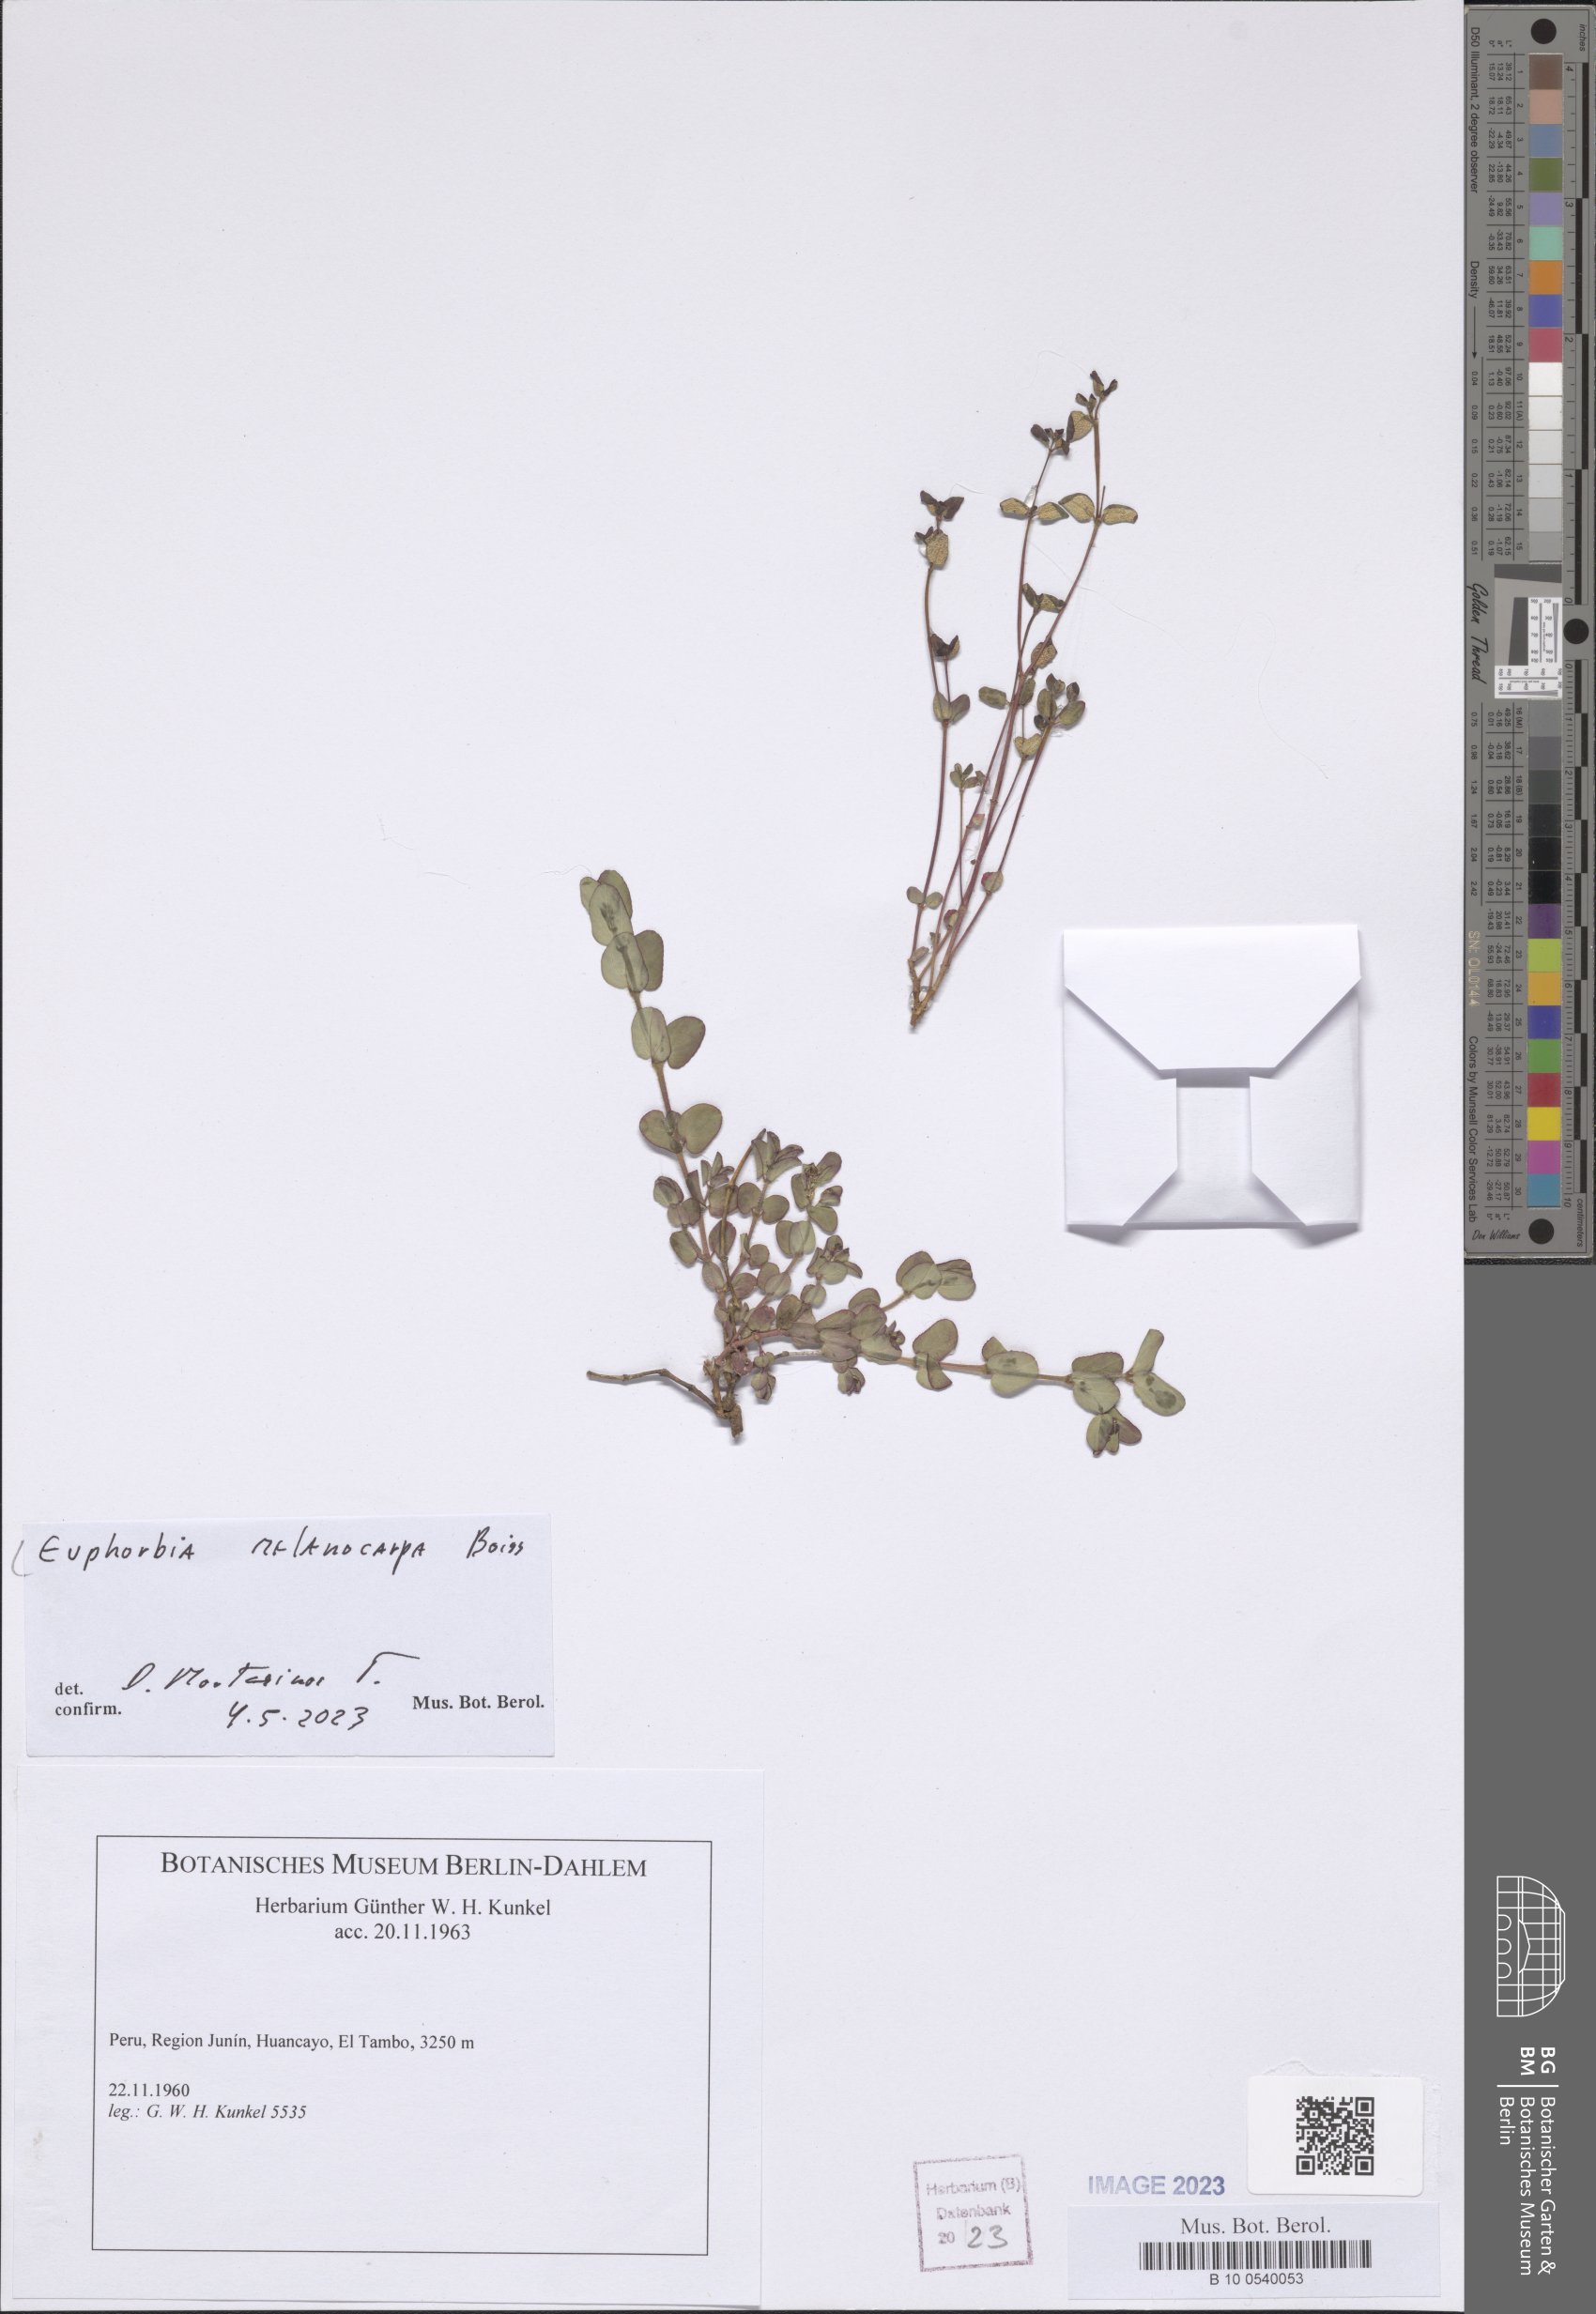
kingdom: Plantae
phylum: Tracheophyta
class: Magnoliopsida
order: Malpighiales
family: Euphorbiaceae
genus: Euphorbia
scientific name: Euphorbia melanocarpa
